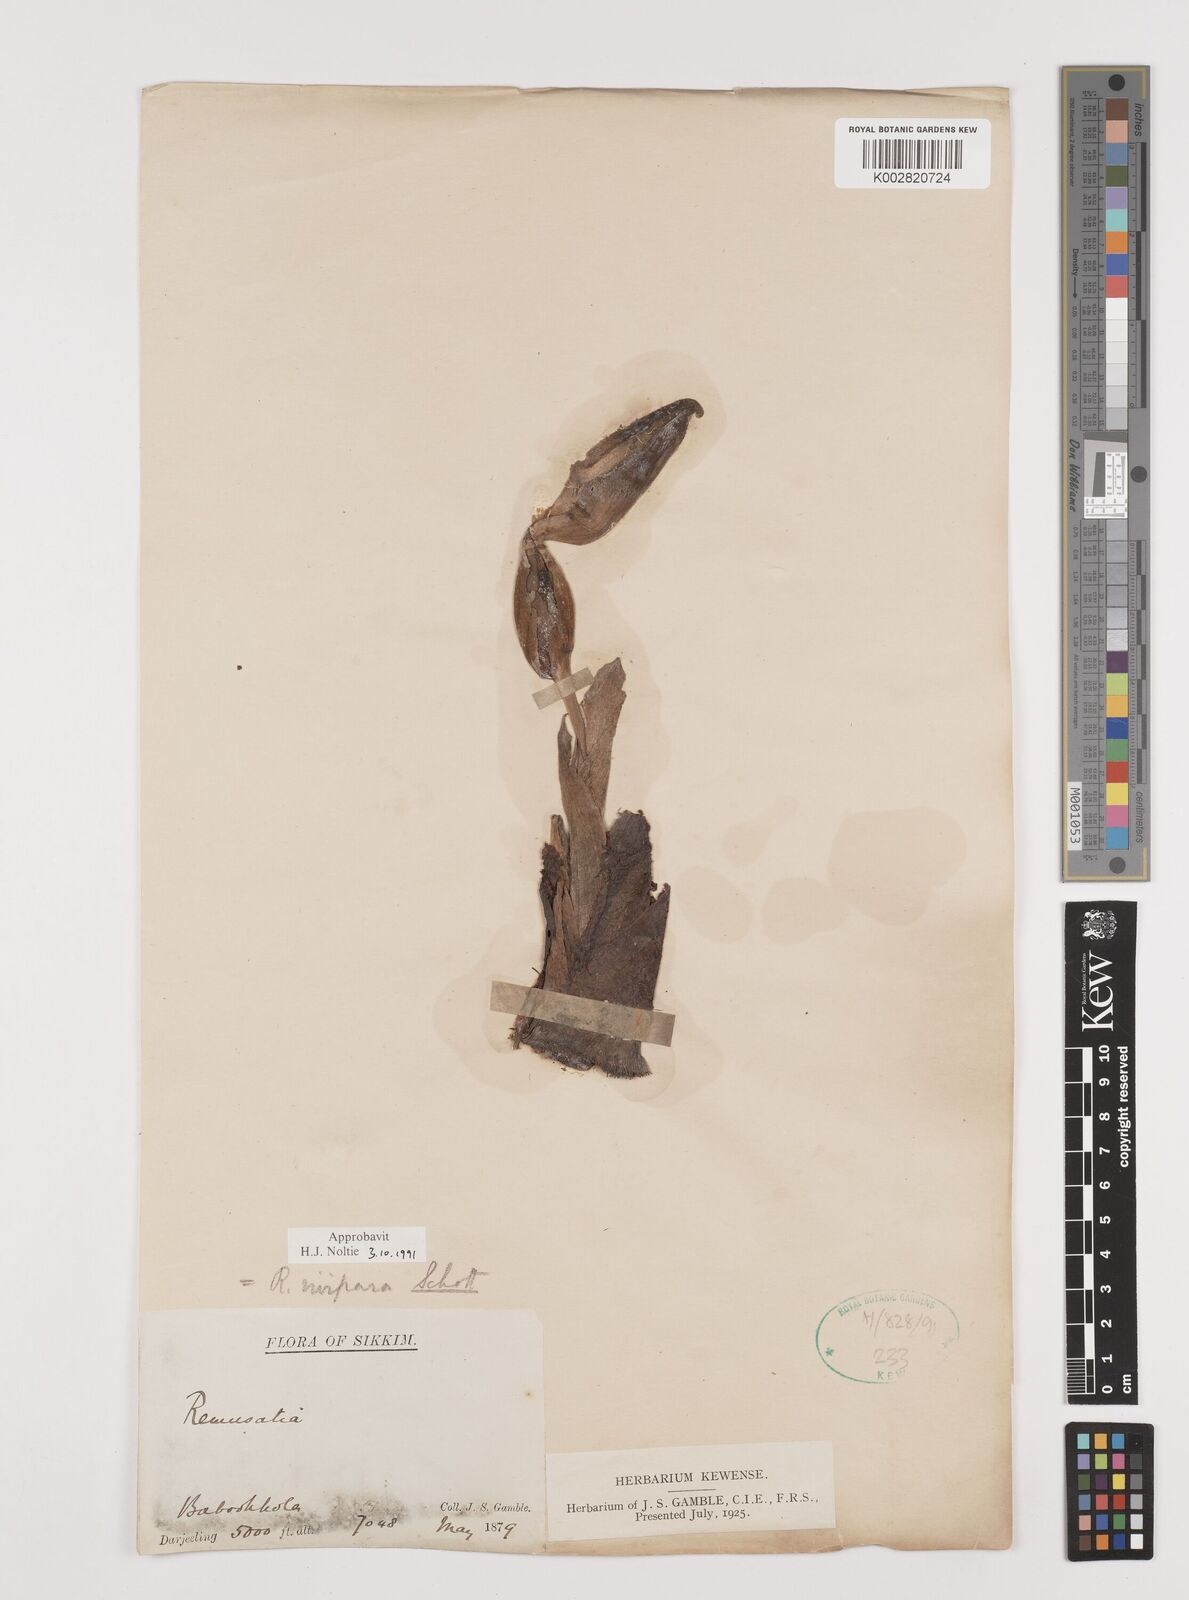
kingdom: Plantae
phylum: Tracheophyta
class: Liliopsida
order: Alismatales
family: Araceae
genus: Remusatia
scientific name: Remusatia vivipara
